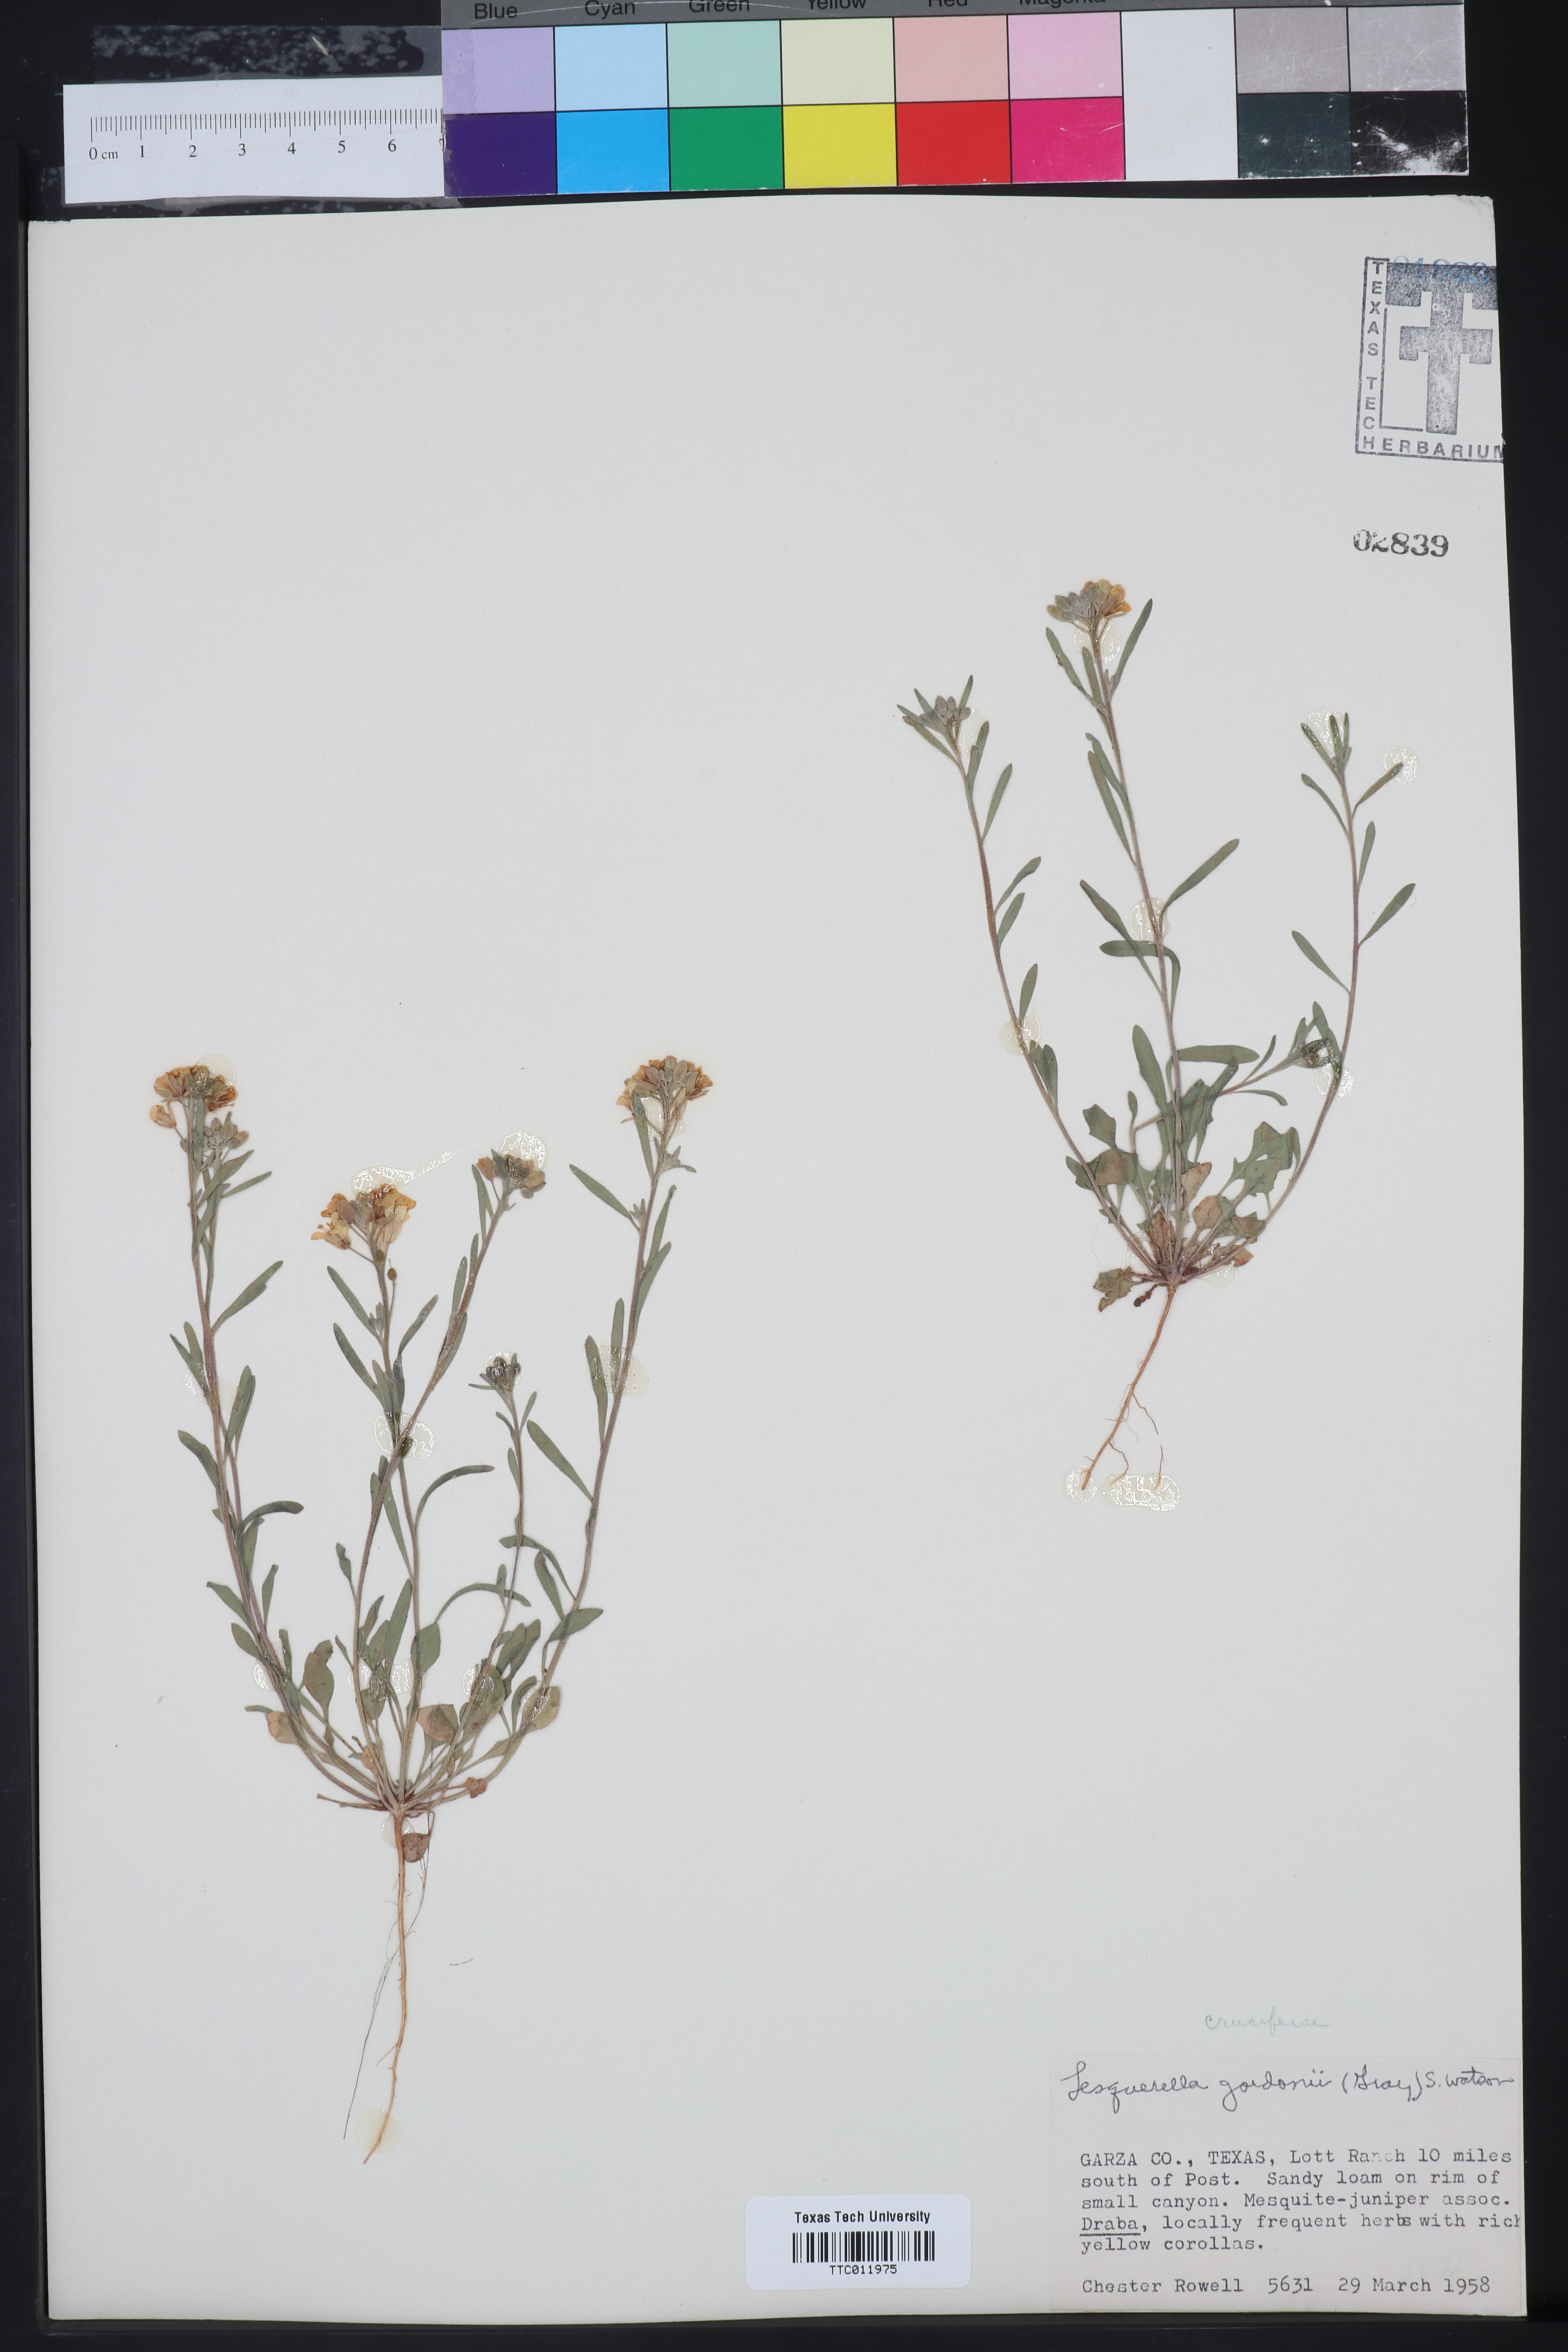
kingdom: Plantae
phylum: Tracheophyta
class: Magnoliopsida
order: Brassicales
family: Brassicaceae
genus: Physaria
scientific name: Physaria gordonii
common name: Gordon's bladderpod
